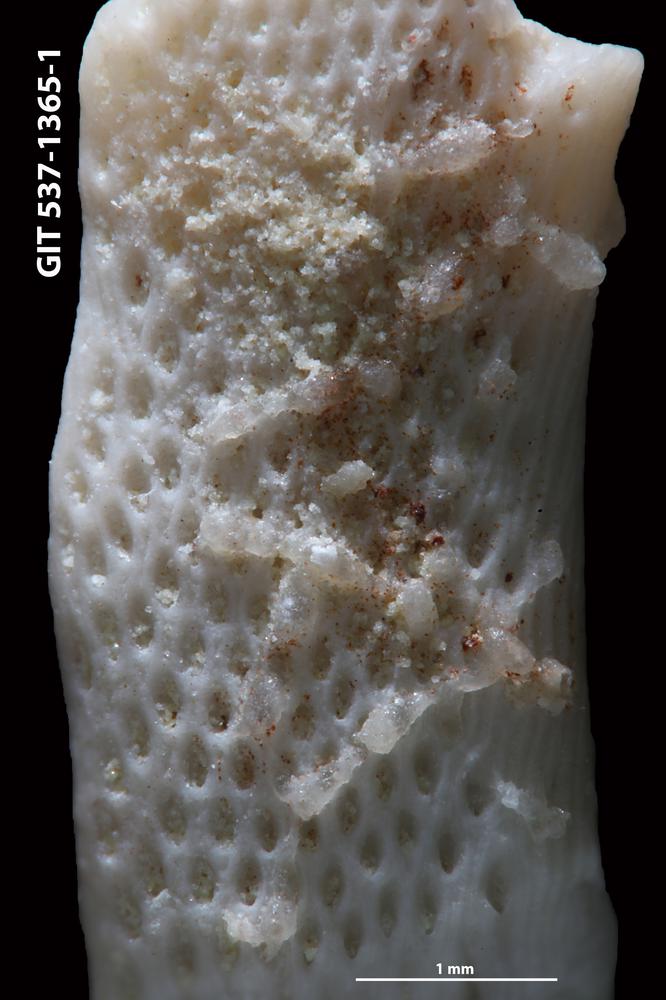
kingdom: Animalia
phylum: Bryozoa
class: Stenolaemata
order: Cyclostomatida
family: Corynotrypidae
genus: Corynotrypa
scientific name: Corynotrypa delicatula
